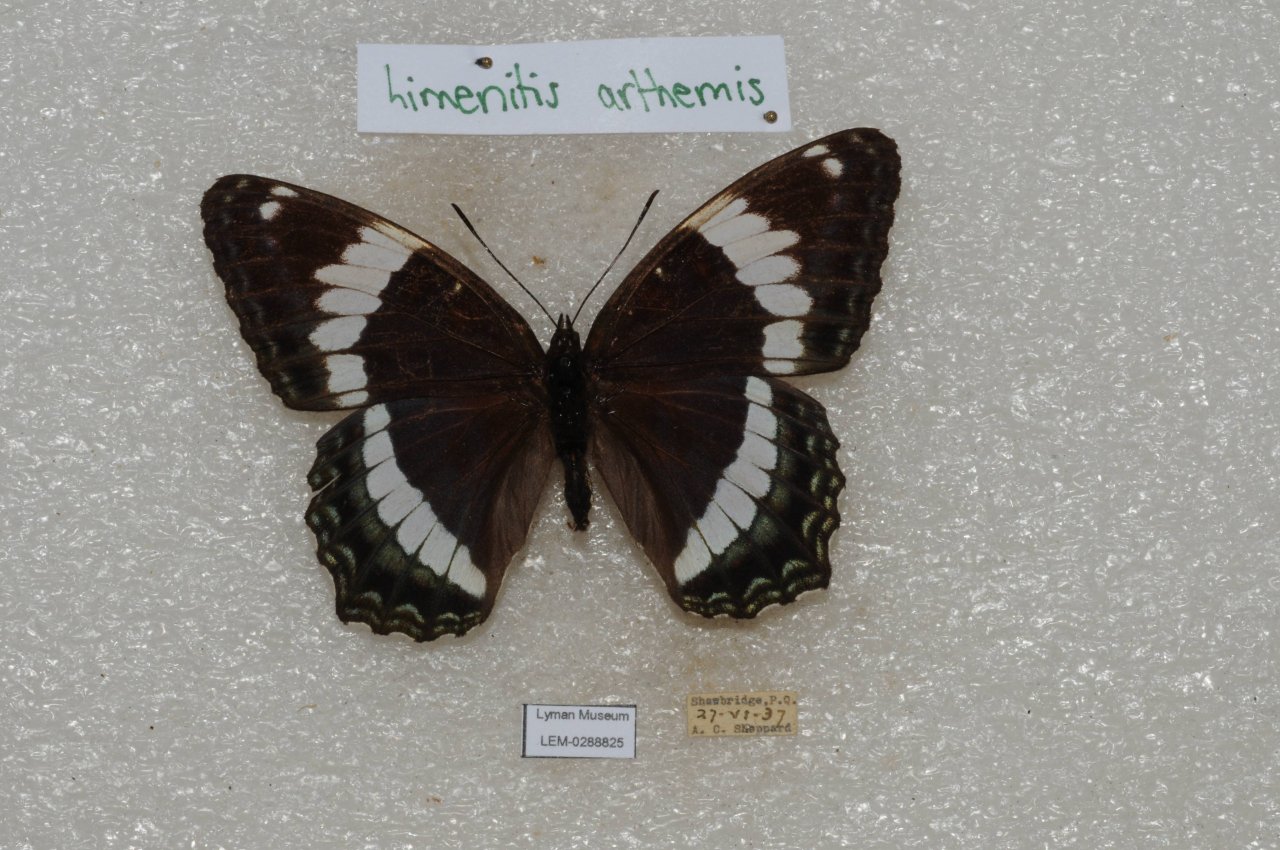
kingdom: Animalia
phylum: Arthropoda
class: Insecta
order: Lepidoptera
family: Nymphalidae
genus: Limenitis
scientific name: Limenitis arthemis
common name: Red-spotted Admiral
